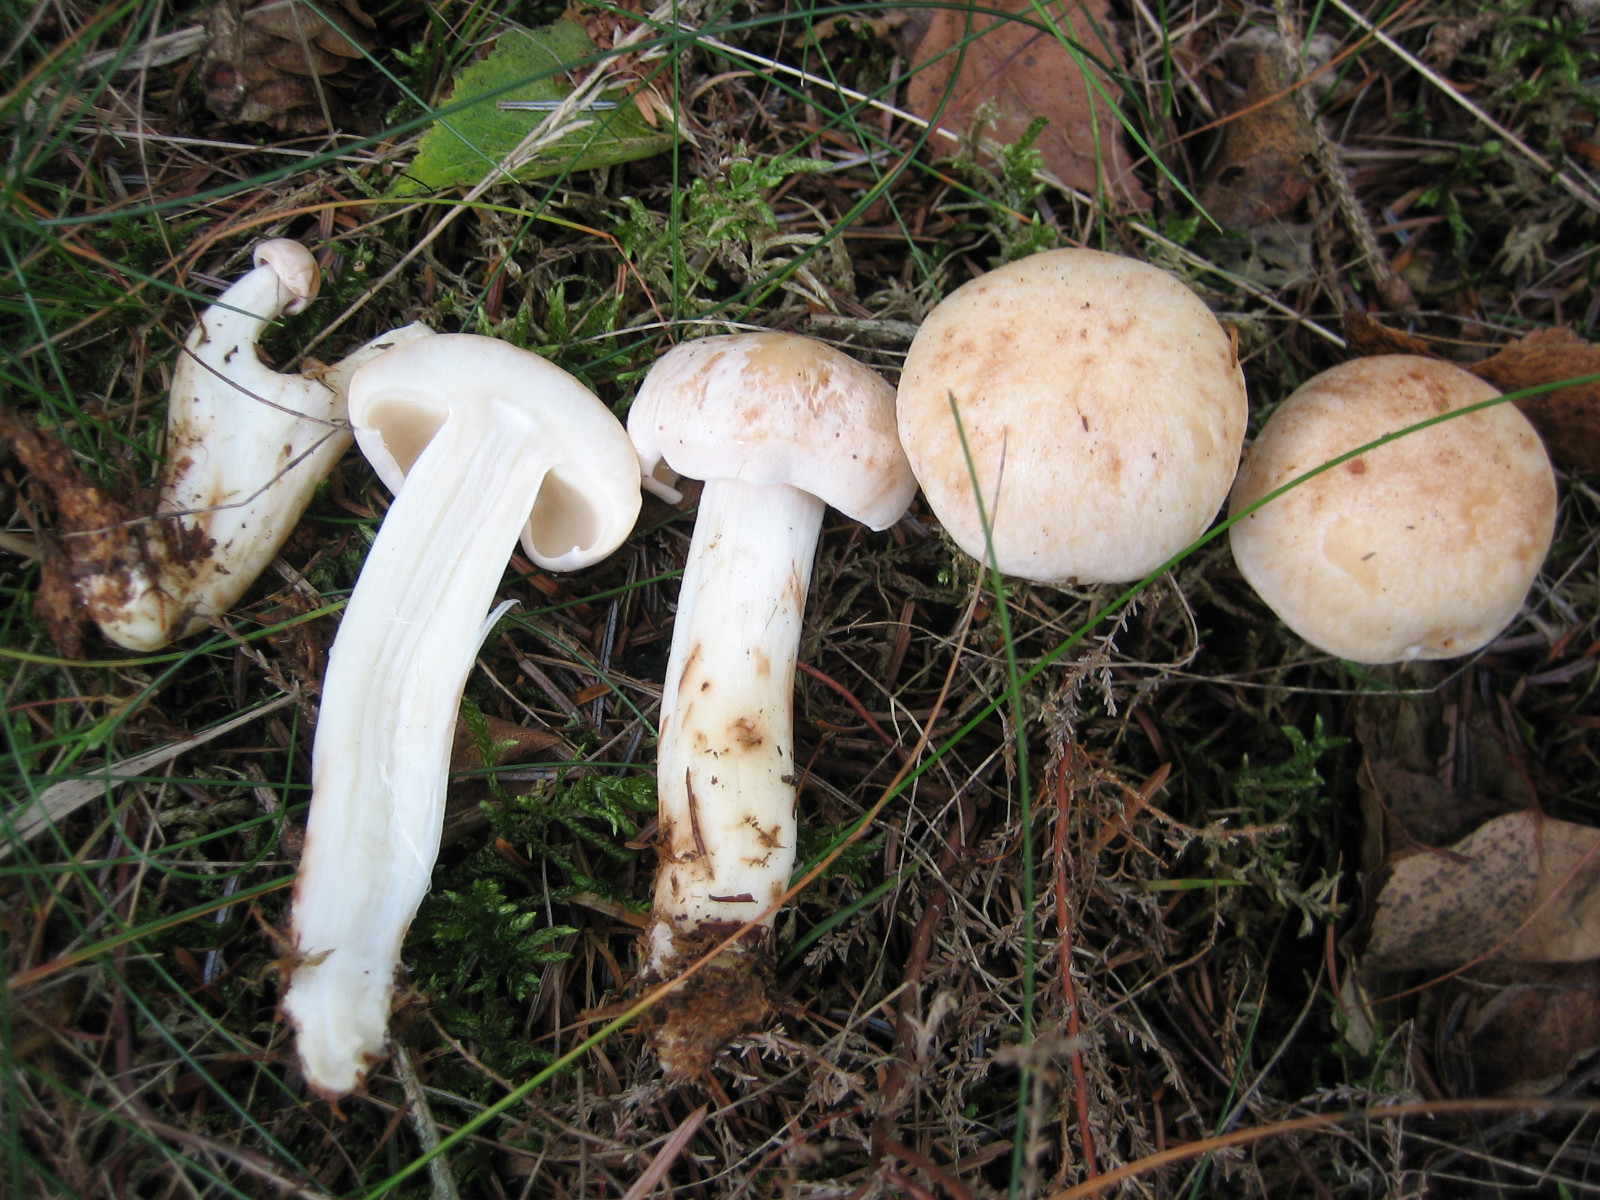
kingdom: Fungi
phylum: Basidiomycota
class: Agaricomycetes
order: Agaricales
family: Omphalotaceae
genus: Rhodocollybia
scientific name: Rhodocollybia maculata
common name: plettet fladhat
